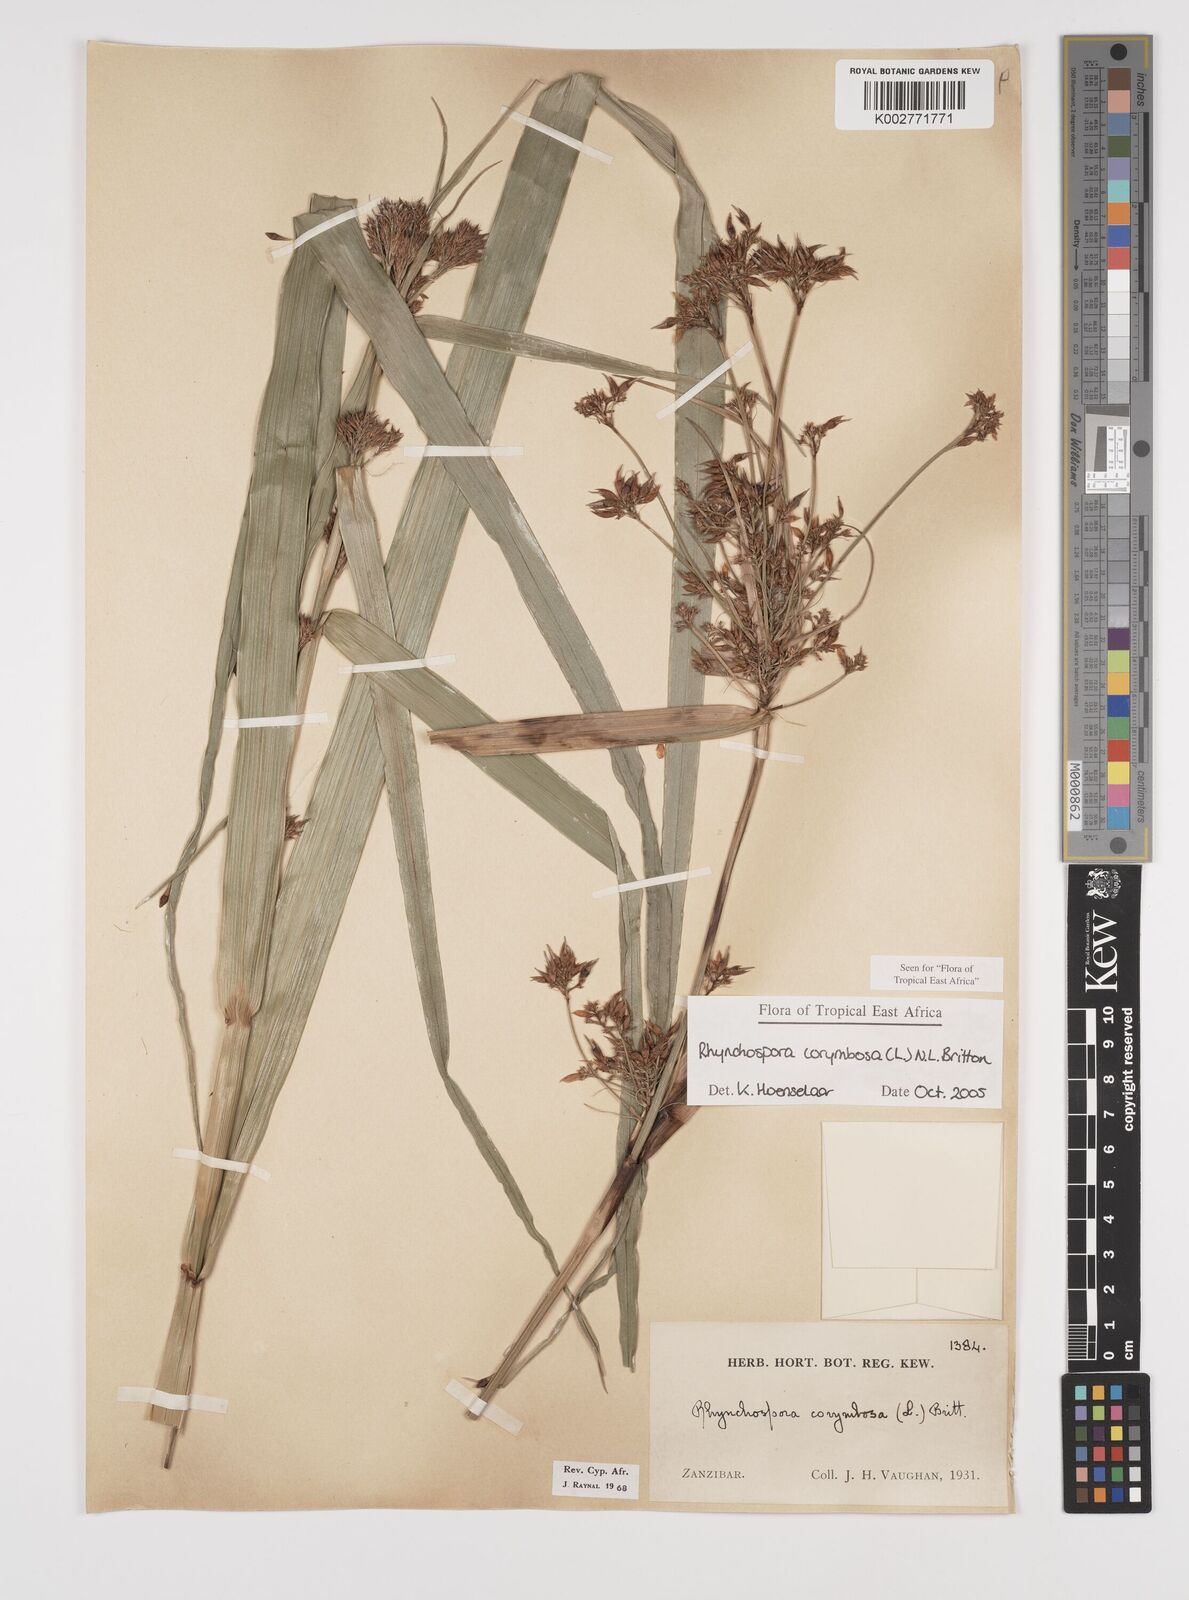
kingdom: Plantae
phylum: Tracheophyta
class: Liliopsida
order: Poales
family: Cyperaceae
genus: Rhynchospora
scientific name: Rhynchospora corymbosa
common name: Golden beak sedge
